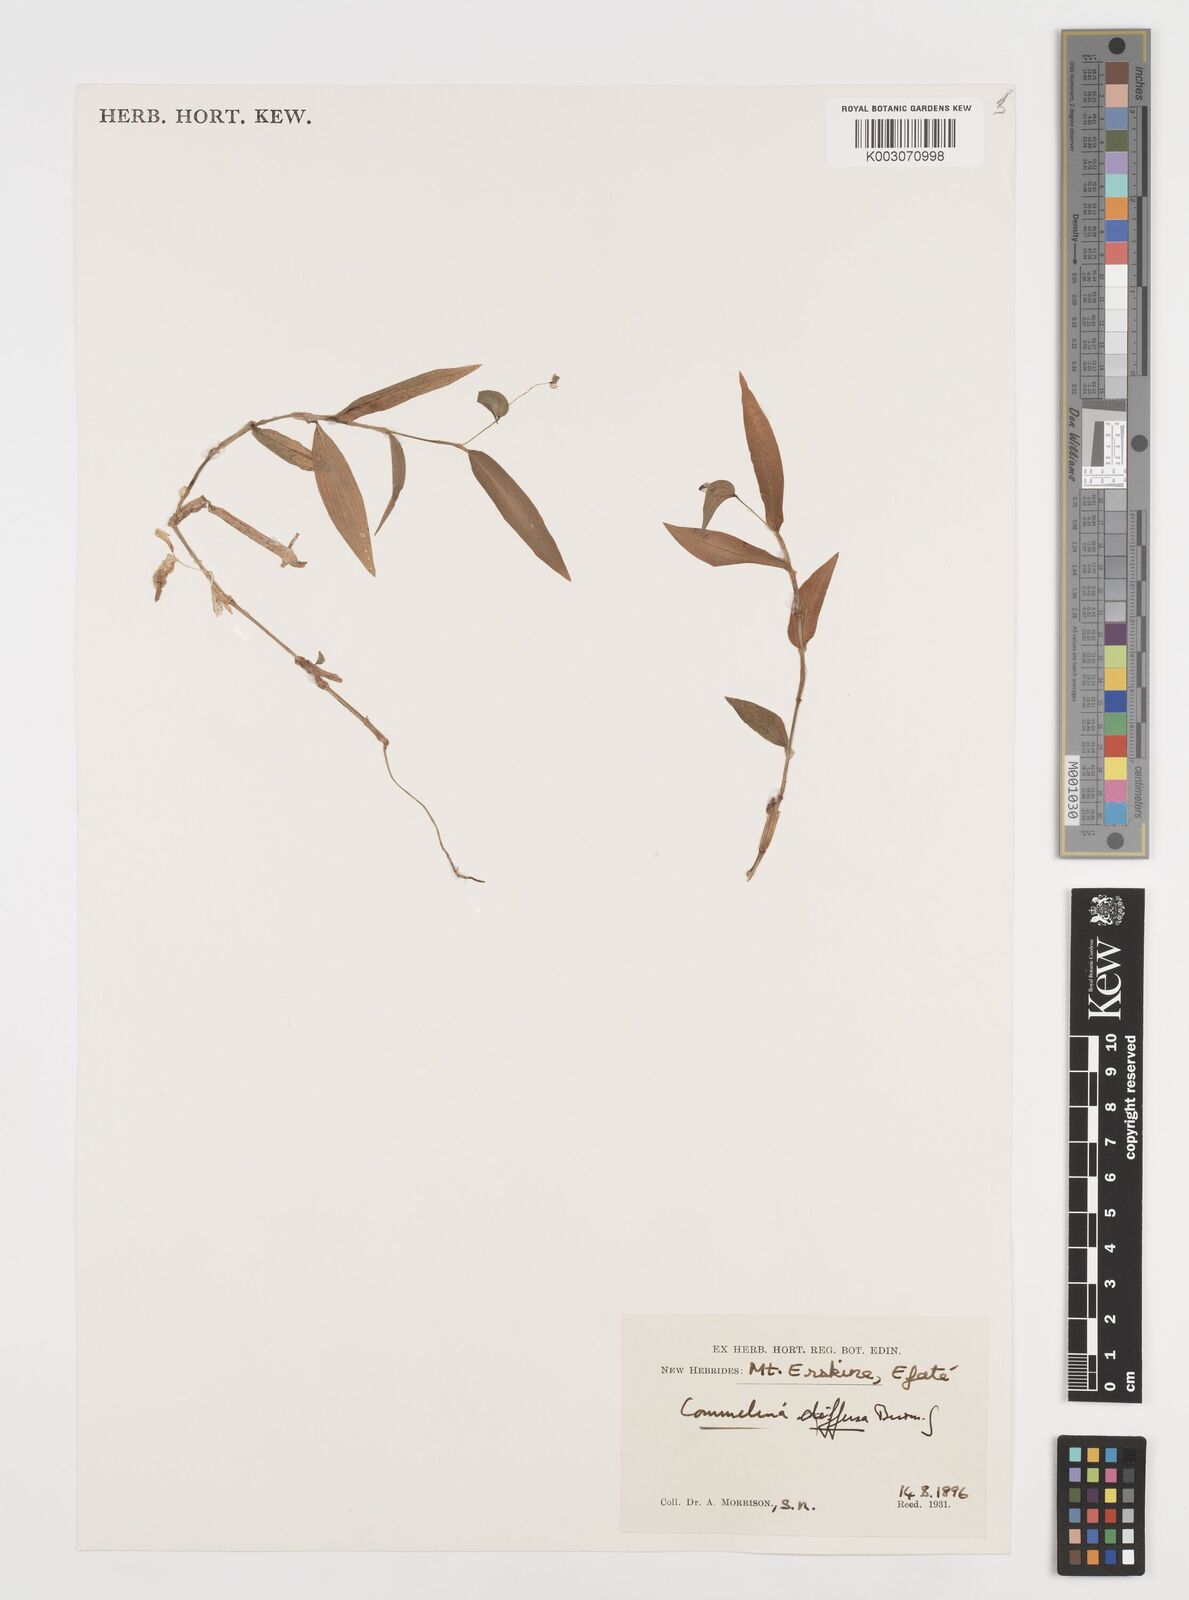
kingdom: Plantae
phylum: Tracheophyta
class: Liliopsida
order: Commelinales
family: Commelinaceae
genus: Commelina
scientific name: Commelina diffusa
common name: Climbing dayflower
